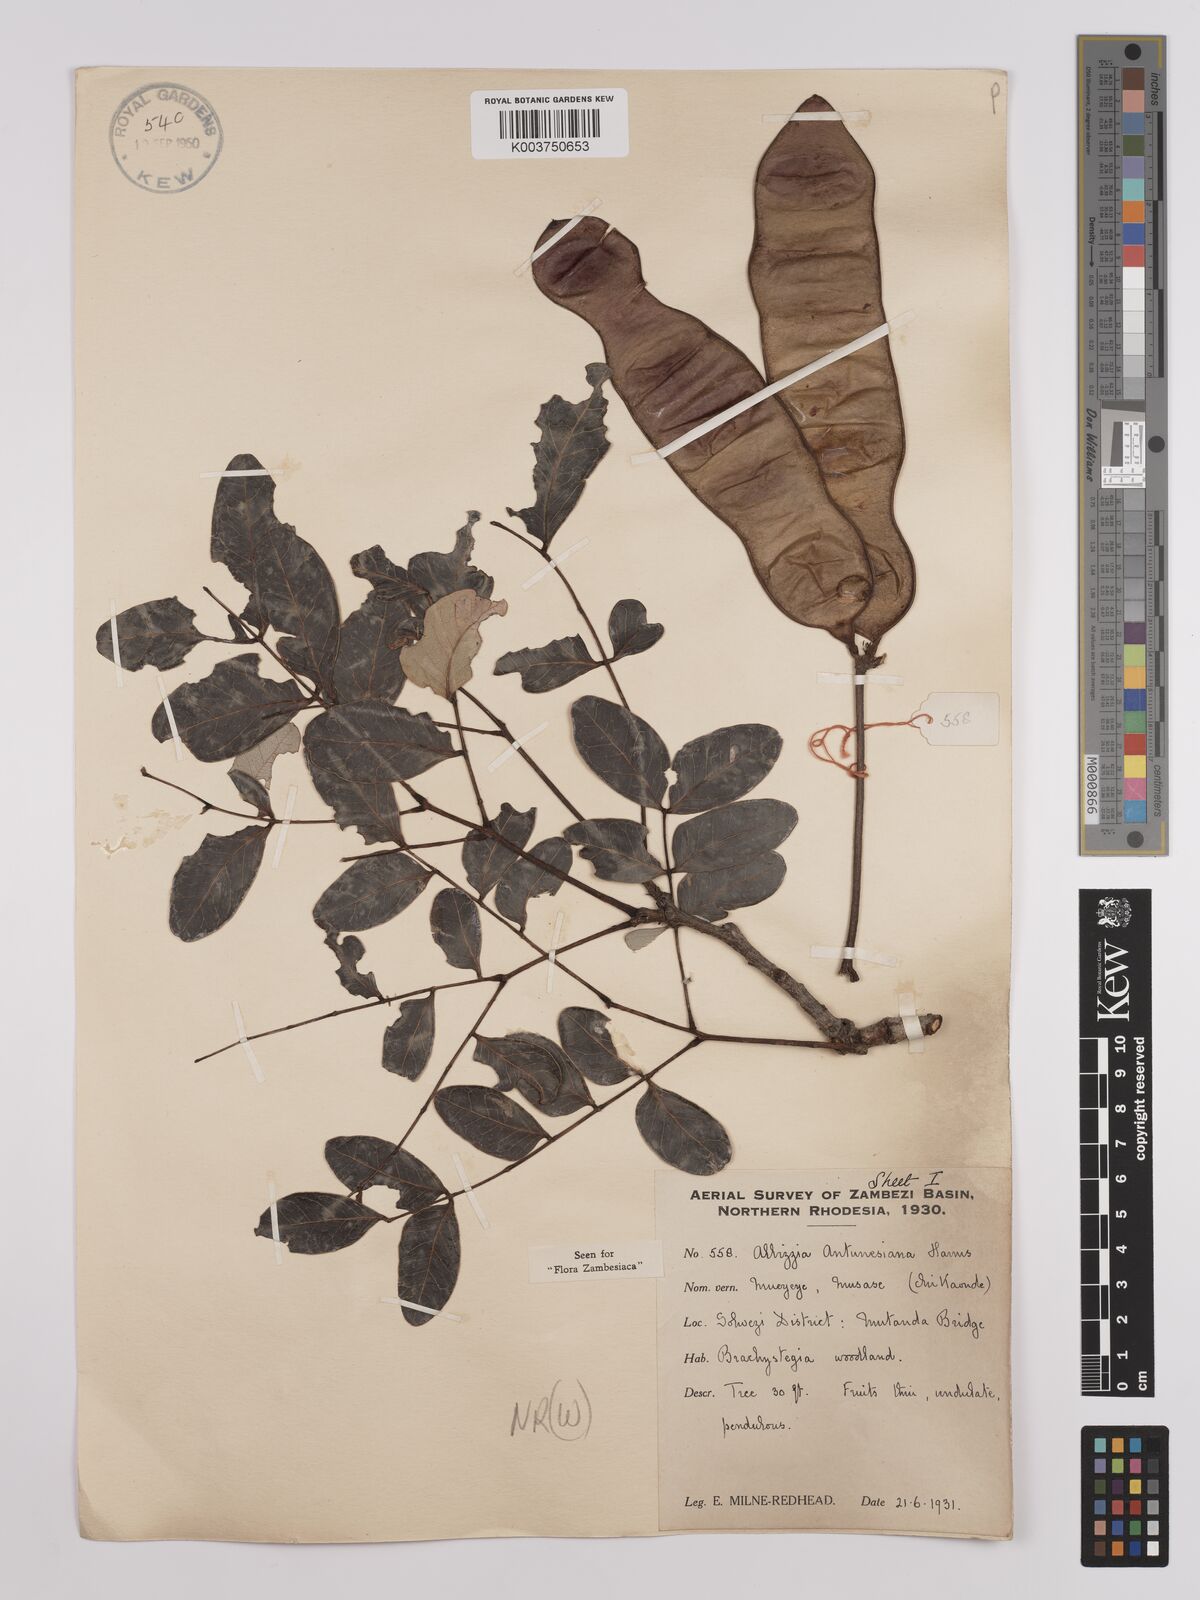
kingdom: Plantae
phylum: Tracheophyta
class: Magnoliopsida
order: Fabales
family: Fabaceae
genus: Albizia
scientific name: Albizia antunesiana
